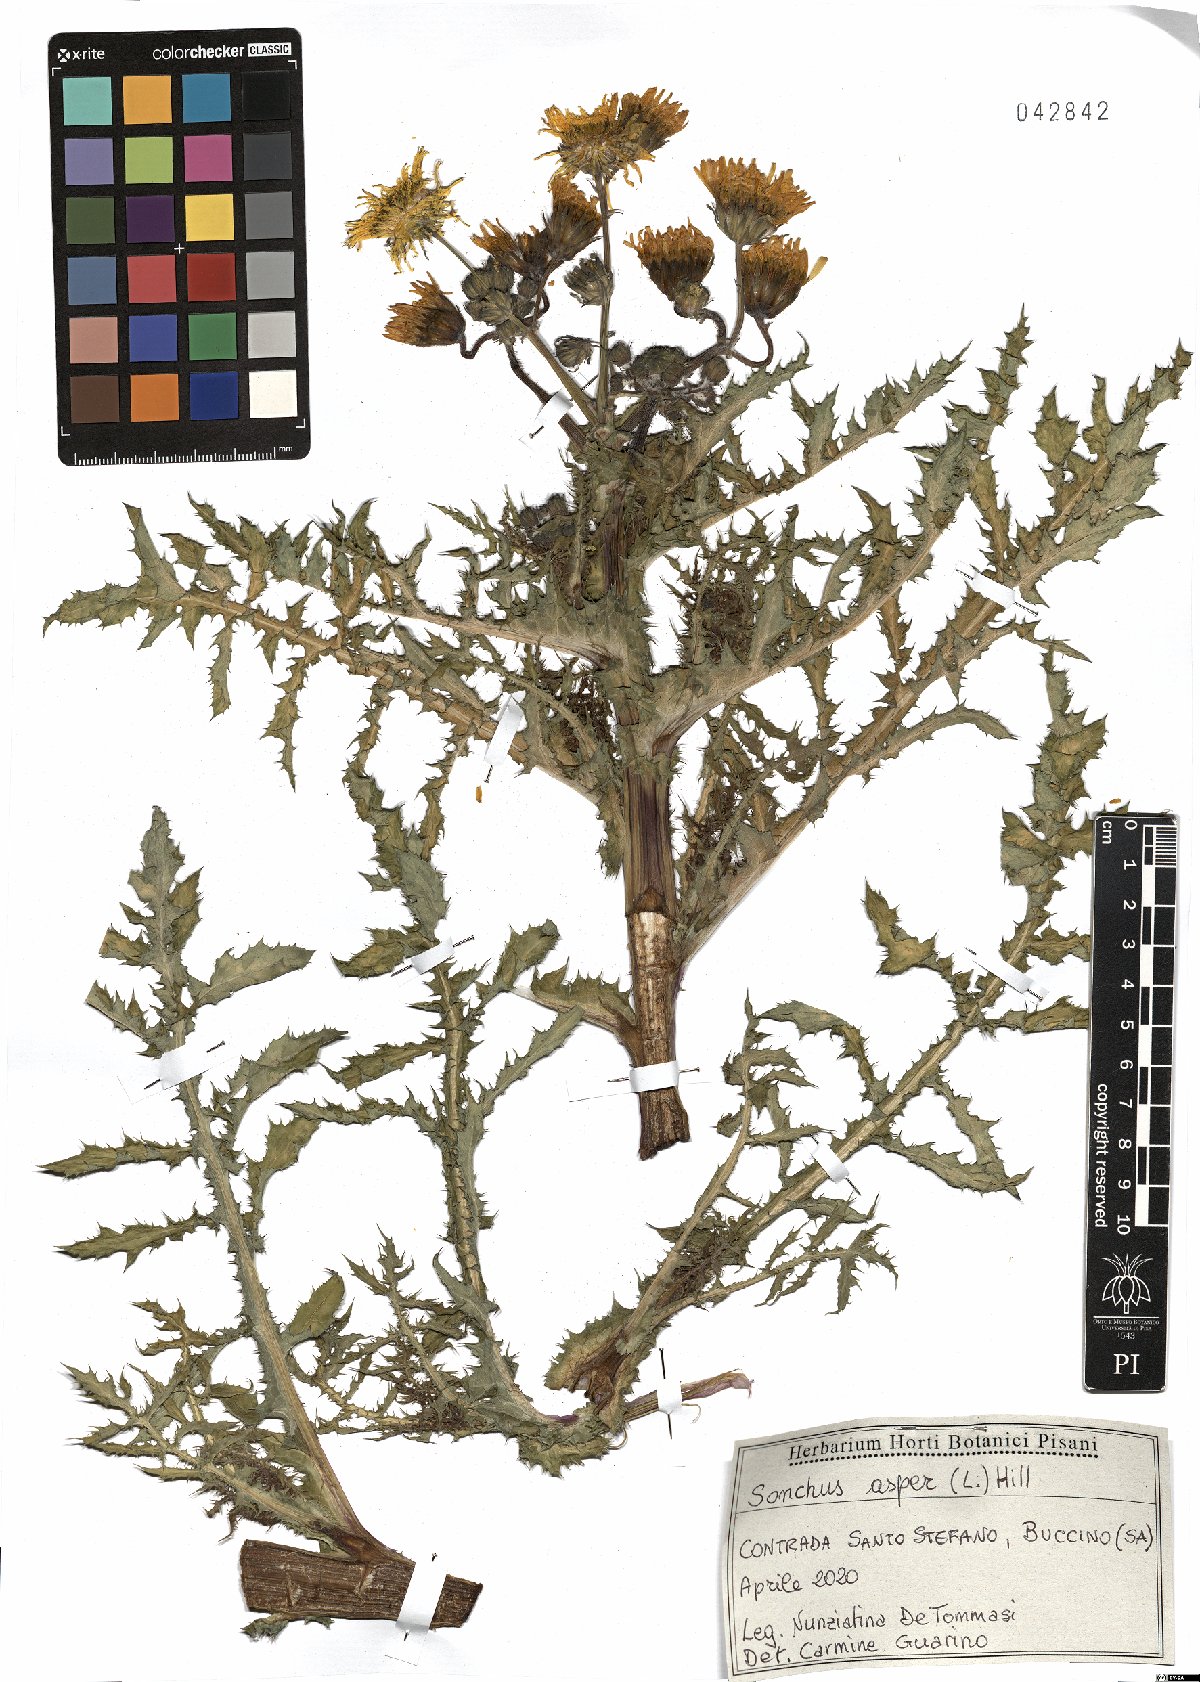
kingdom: Plantae
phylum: Tracheophyta
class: Magnoliopsida
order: Asterales
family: Asteraceae
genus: Sonchus
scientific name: Sonchus asper
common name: Prickly sow-thistle
